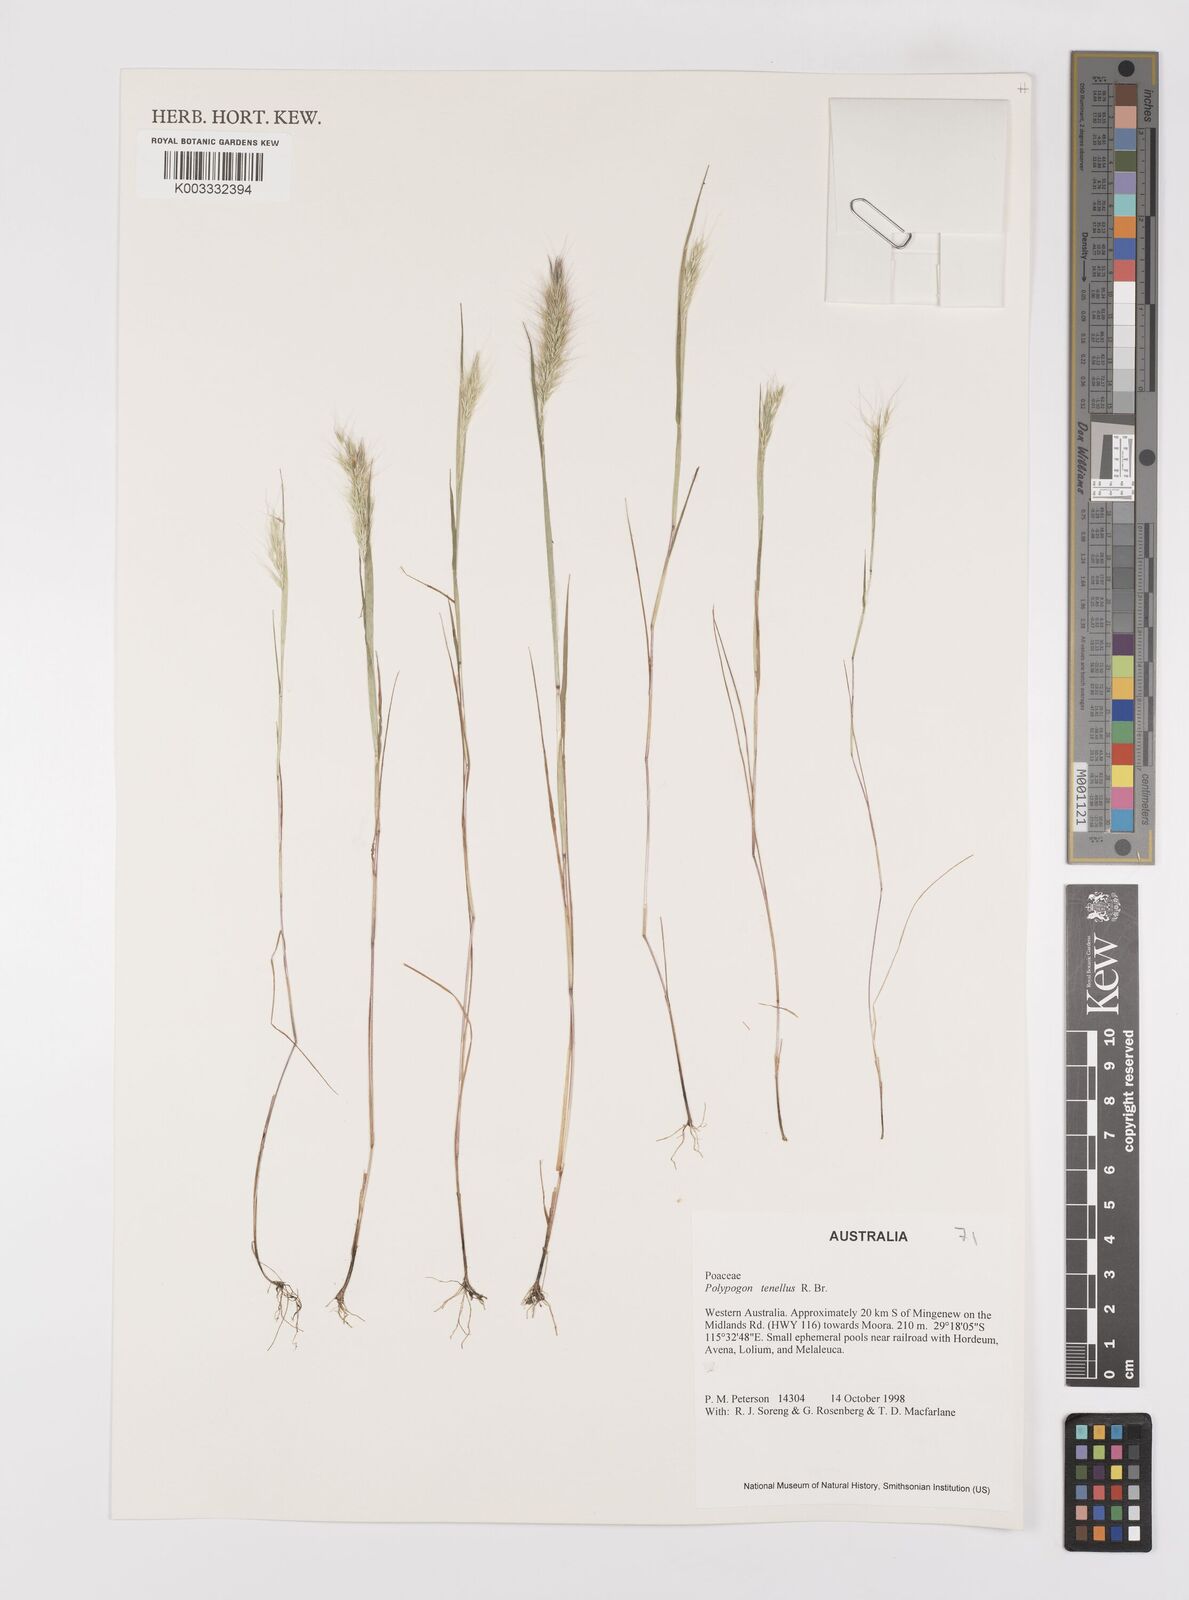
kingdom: Plantae
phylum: Tracheophyta
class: Liliopsida
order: Poales
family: Poaceae
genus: Polypogon
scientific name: Polypogon tenellus
